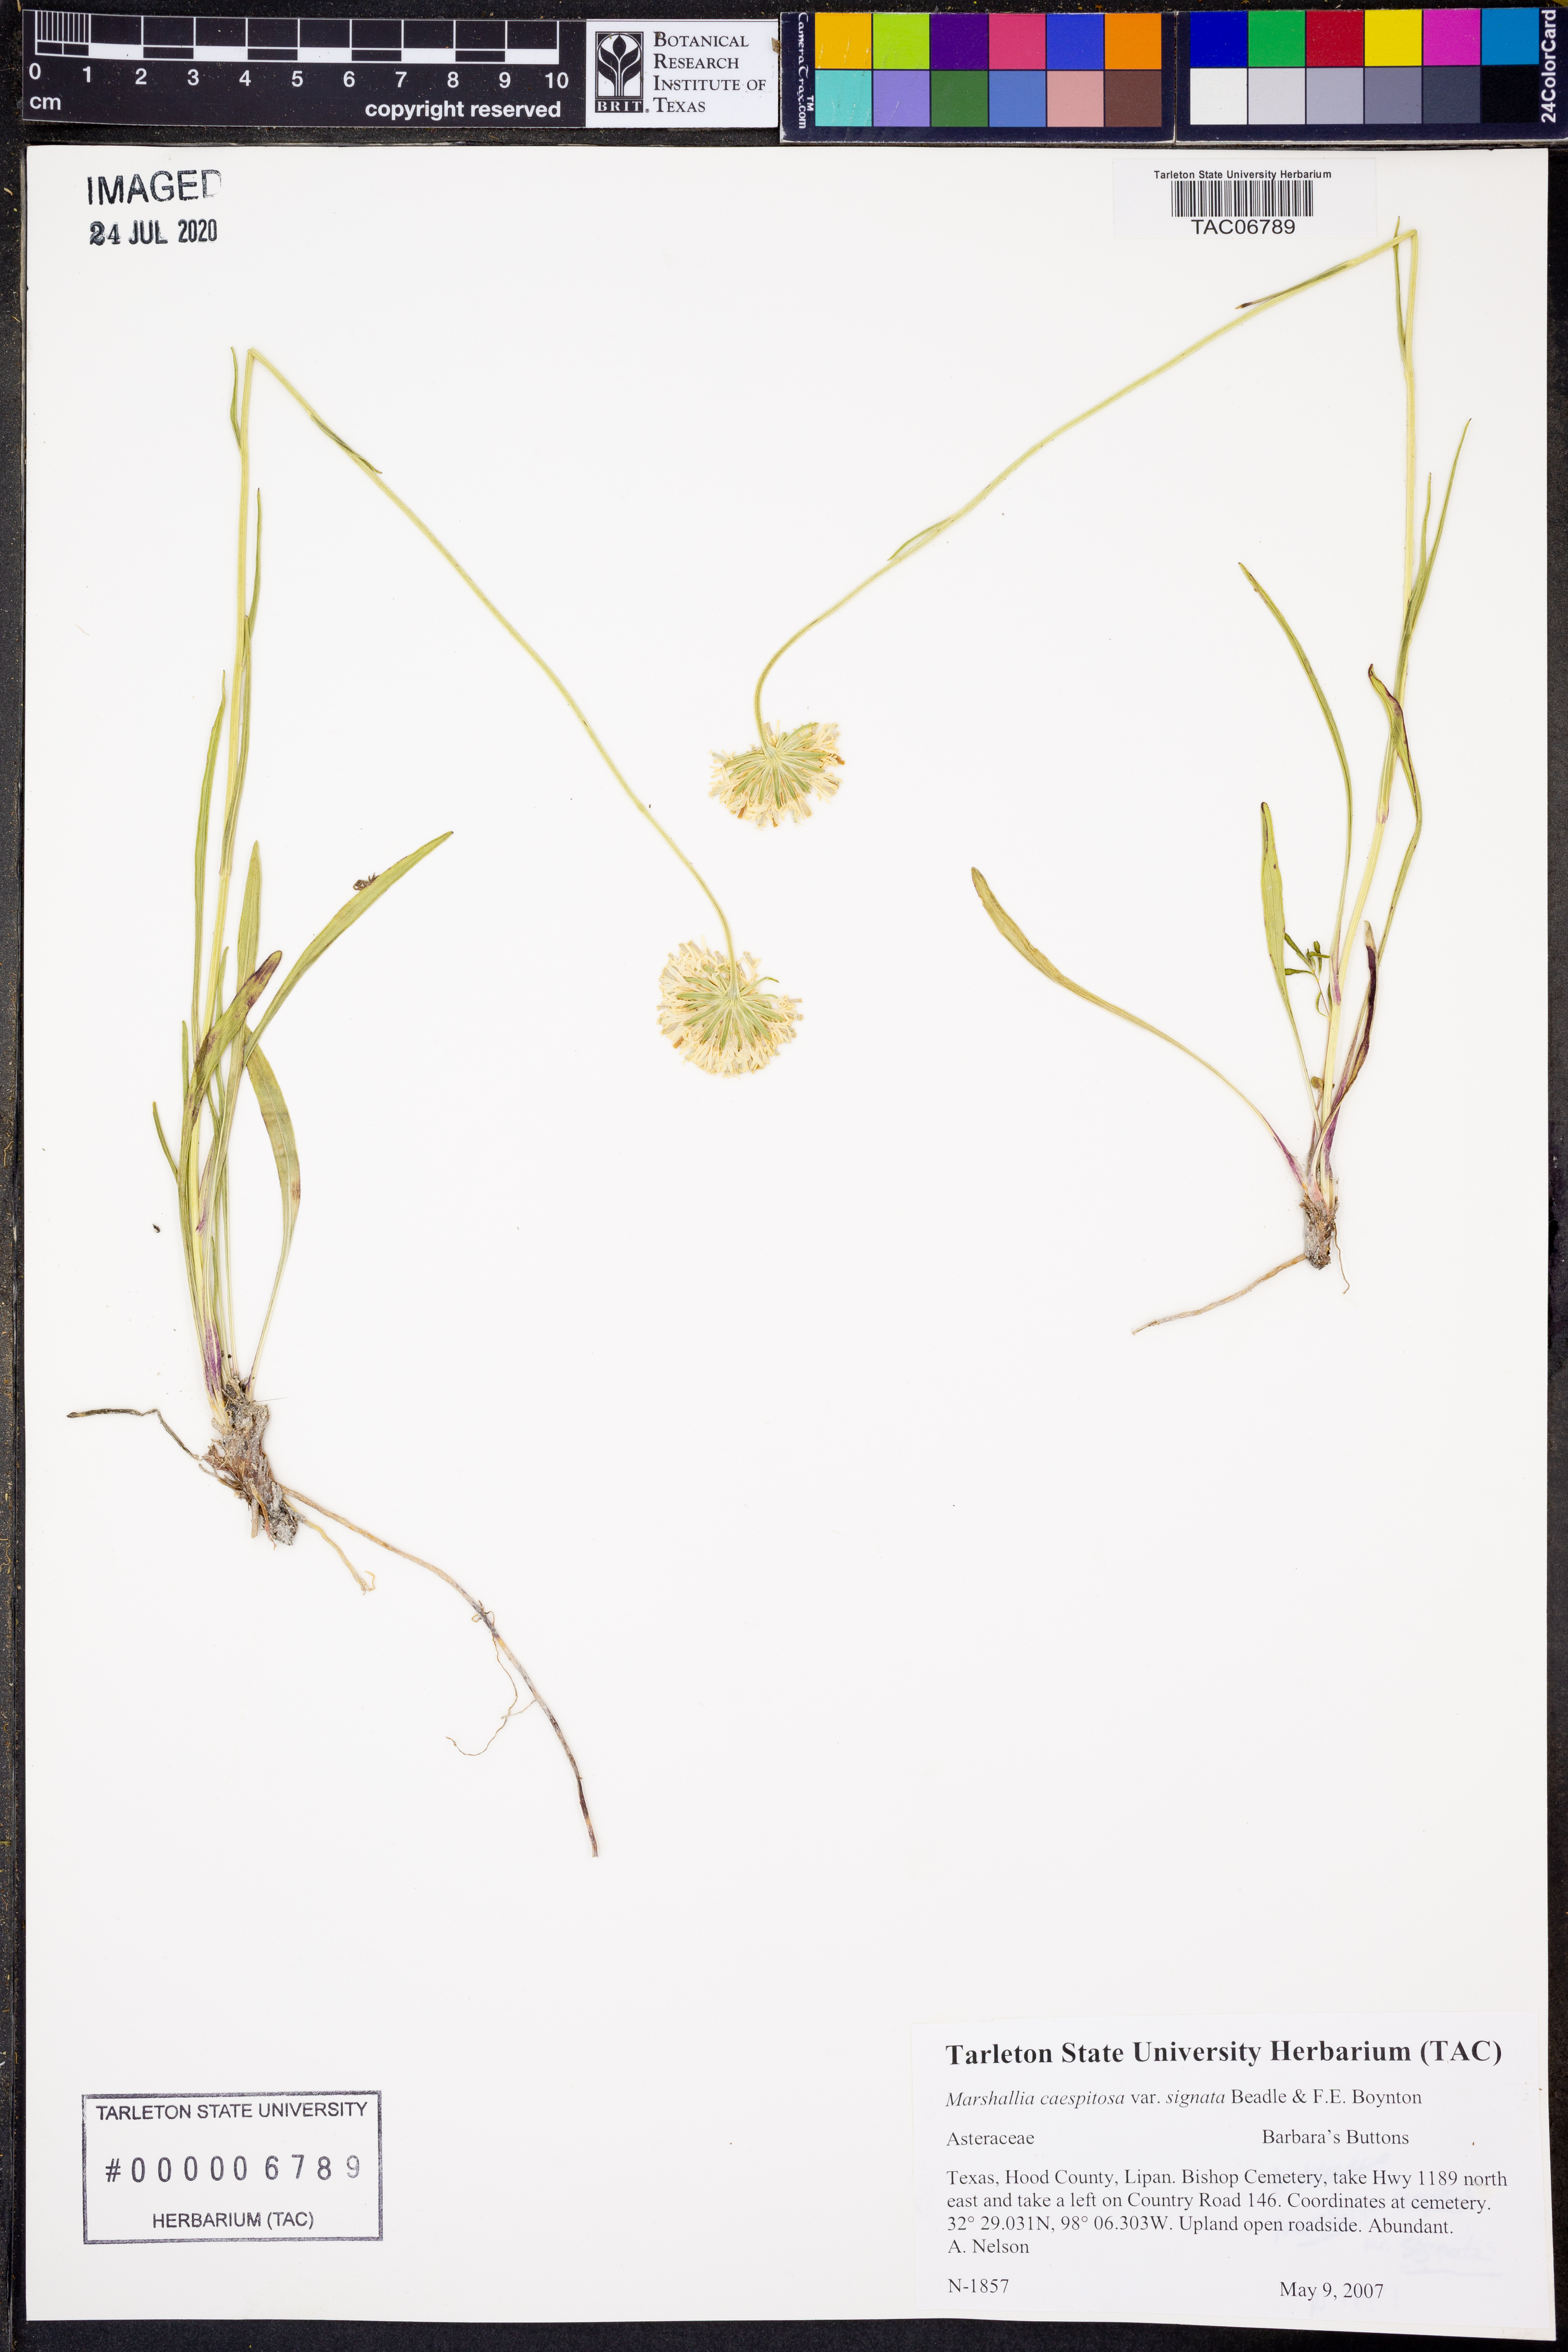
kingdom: Plantae
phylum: Tracheophyta
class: Magnoliopsida
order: Asterales
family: Asteraceae
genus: Marshallia
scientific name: Marshallia caespitosa
